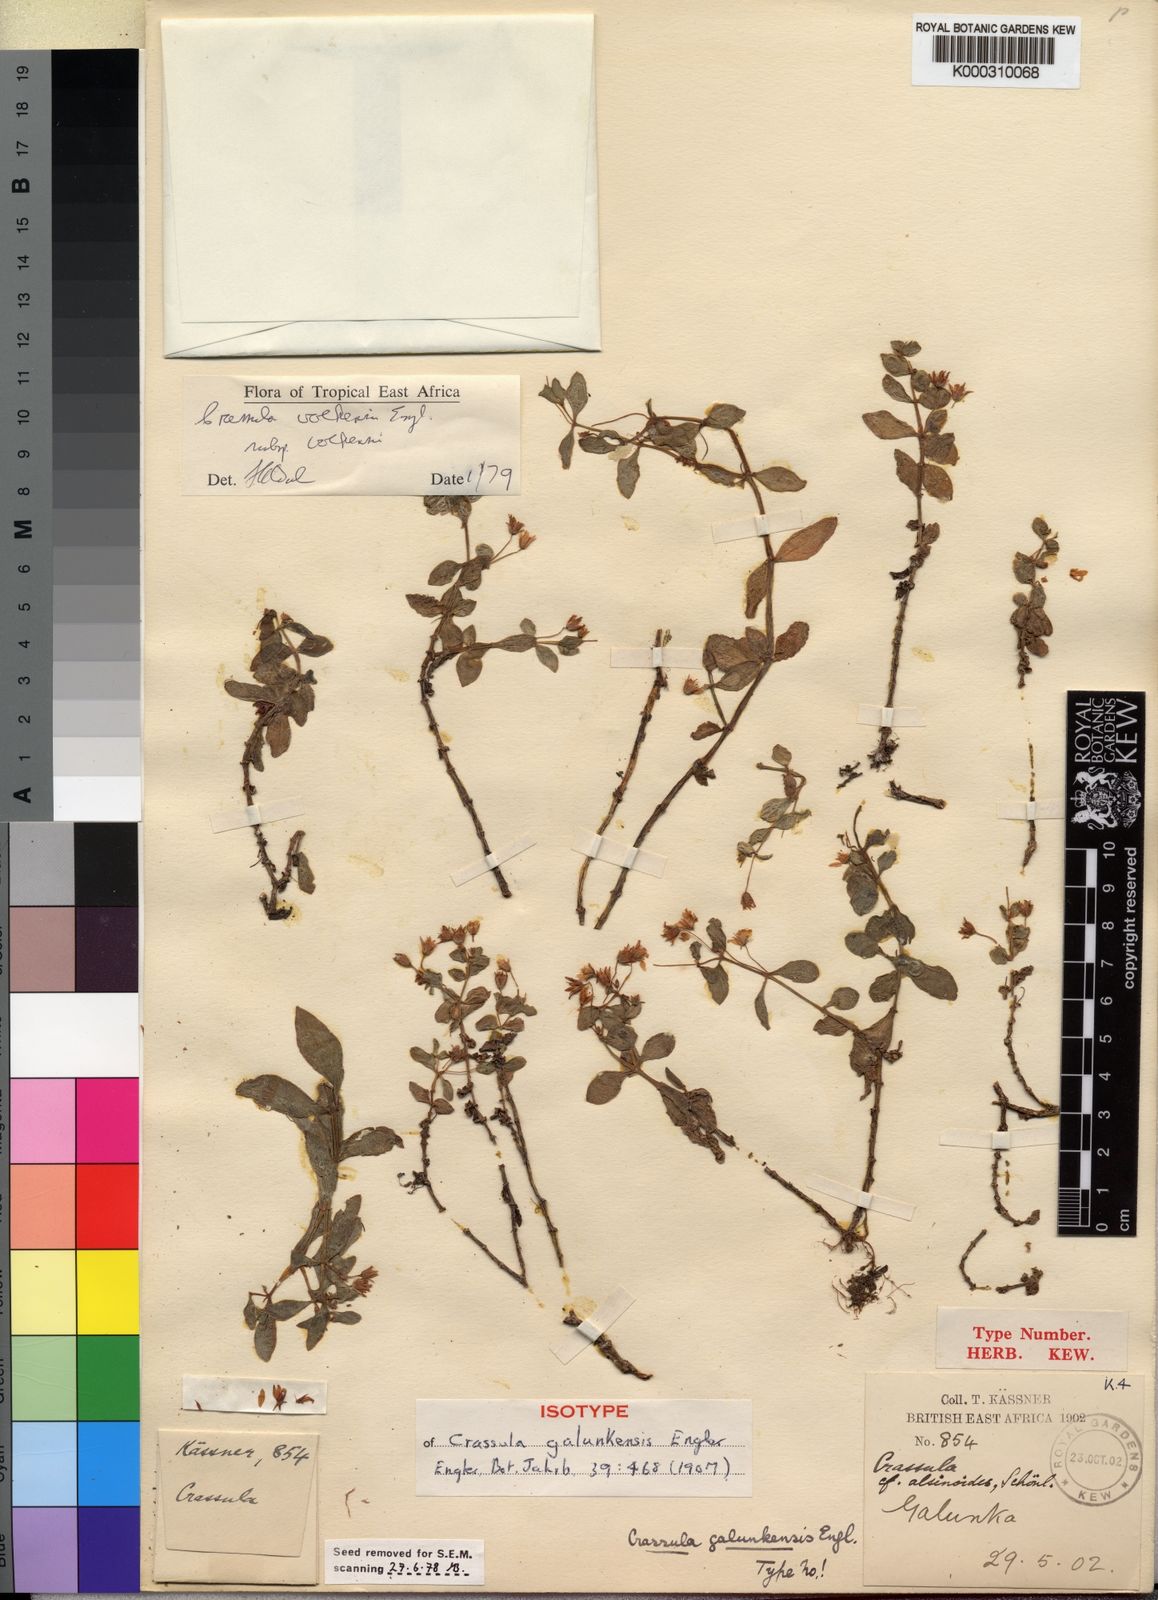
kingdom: Plantae
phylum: Tracheophyta
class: Magnoliopsida
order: Saxifragales
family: Crassulaceae
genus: Crassula
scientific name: Crassula volkensii
